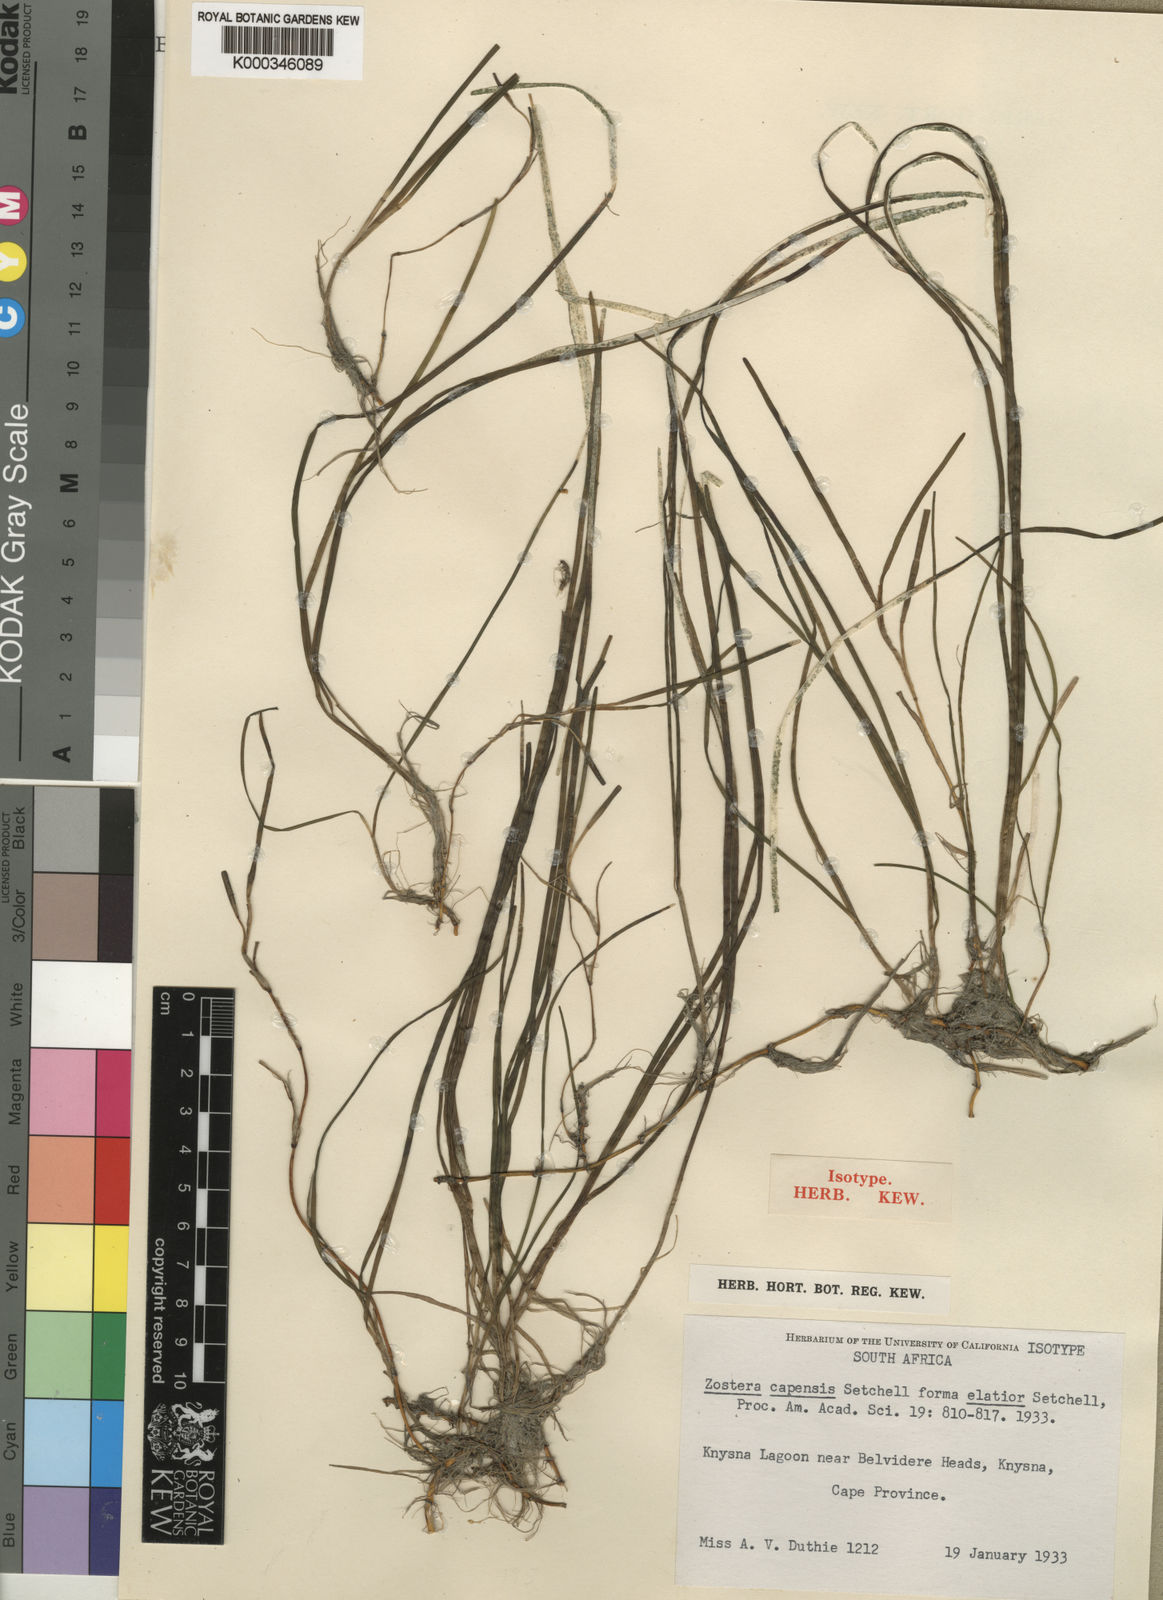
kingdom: Plantae
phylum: Tracheophyta
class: Liliopsida
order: Alismatales
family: Zosteraceae
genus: Zostera
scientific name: Zostera capensis
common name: Species code: zp
